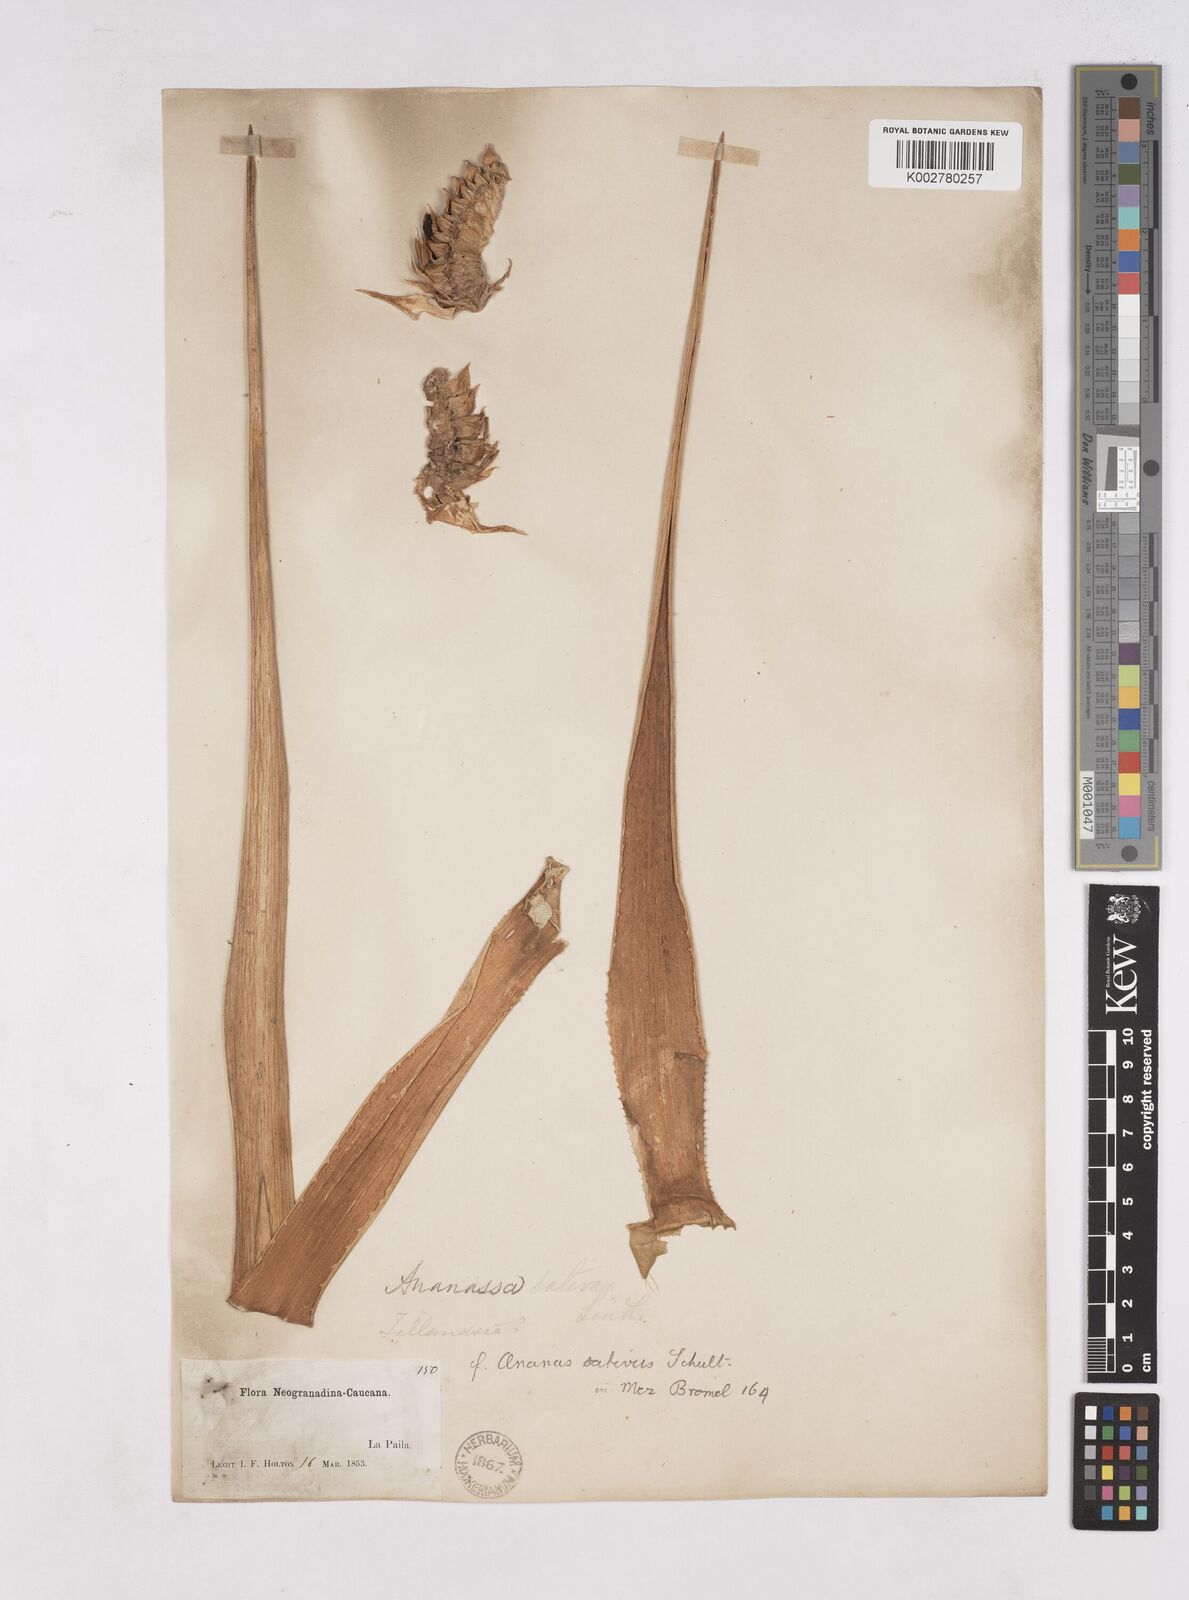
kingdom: Plantae
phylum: Tracheophyta
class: Liliopsida
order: Poales
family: Bromeliaceae
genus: Ananas
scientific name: Ananas comosus
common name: Pineapple
